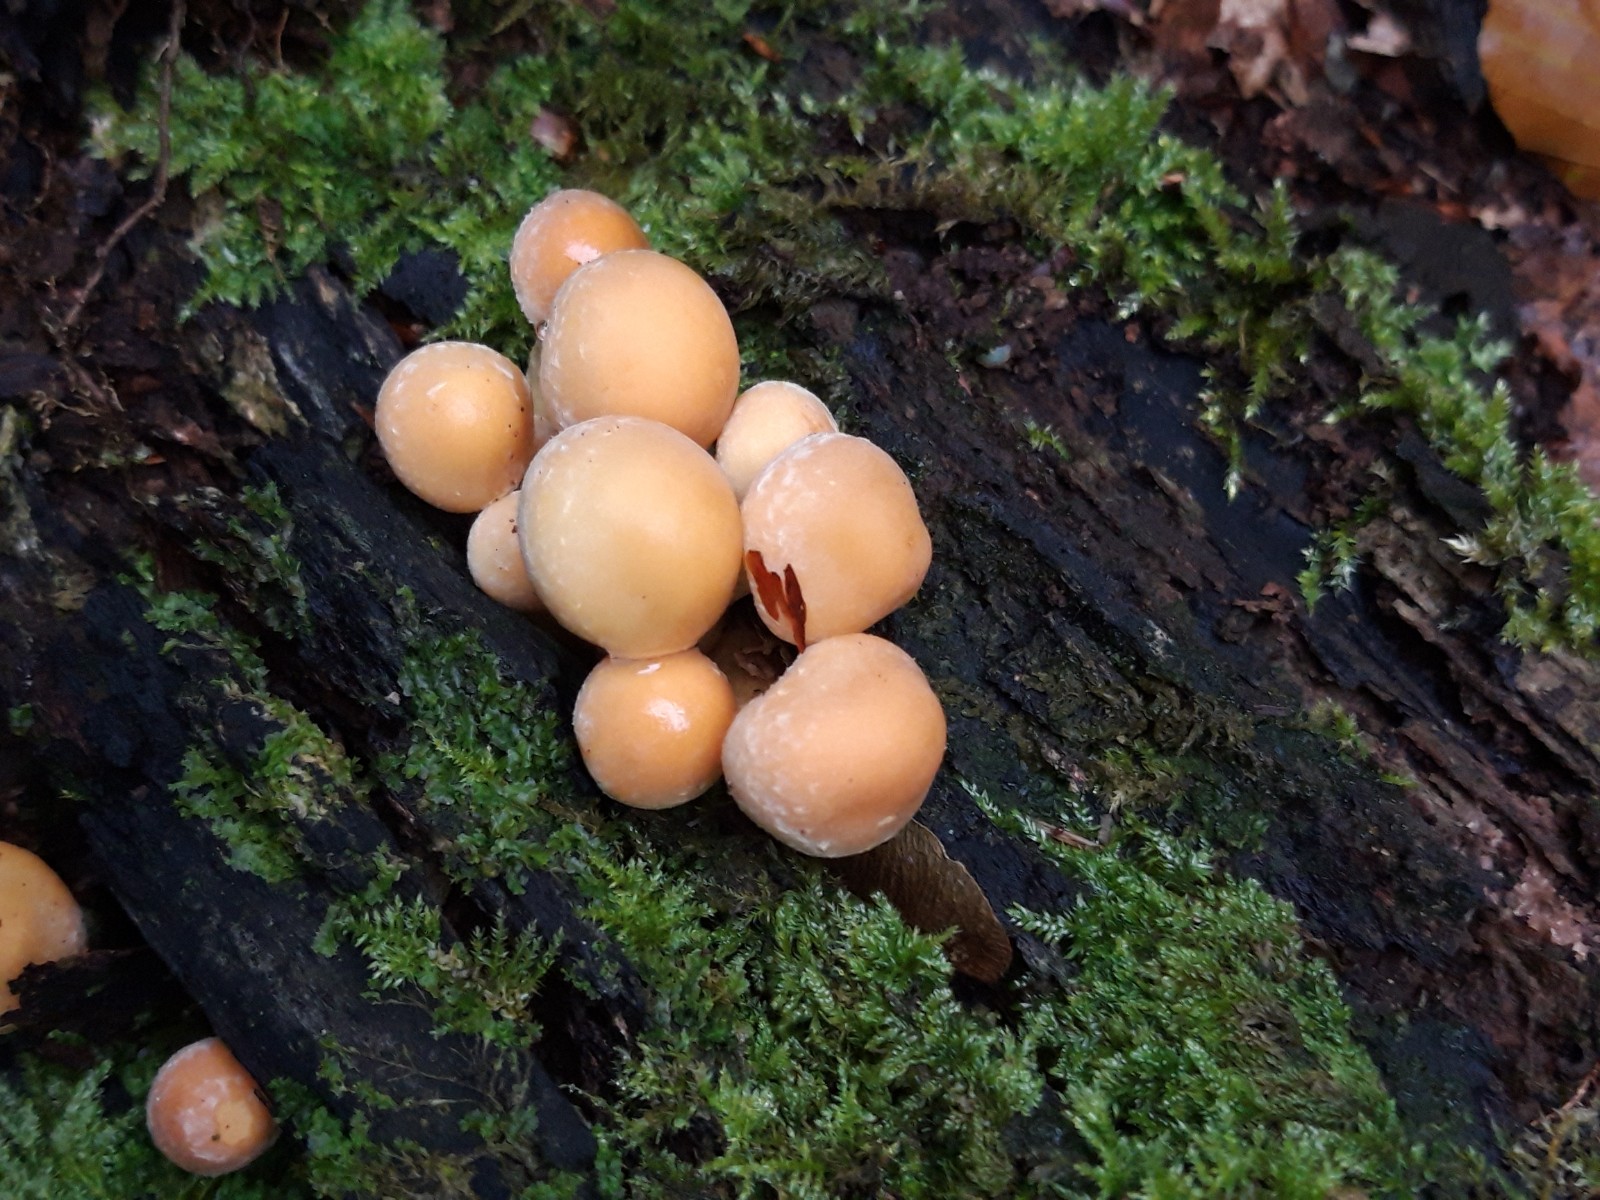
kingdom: Fungi
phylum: Basidiomycota
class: Agaricomycetes
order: Agaricales
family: Strophariaceae
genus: Hypholoma
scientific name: Hypholoma fasciculare
